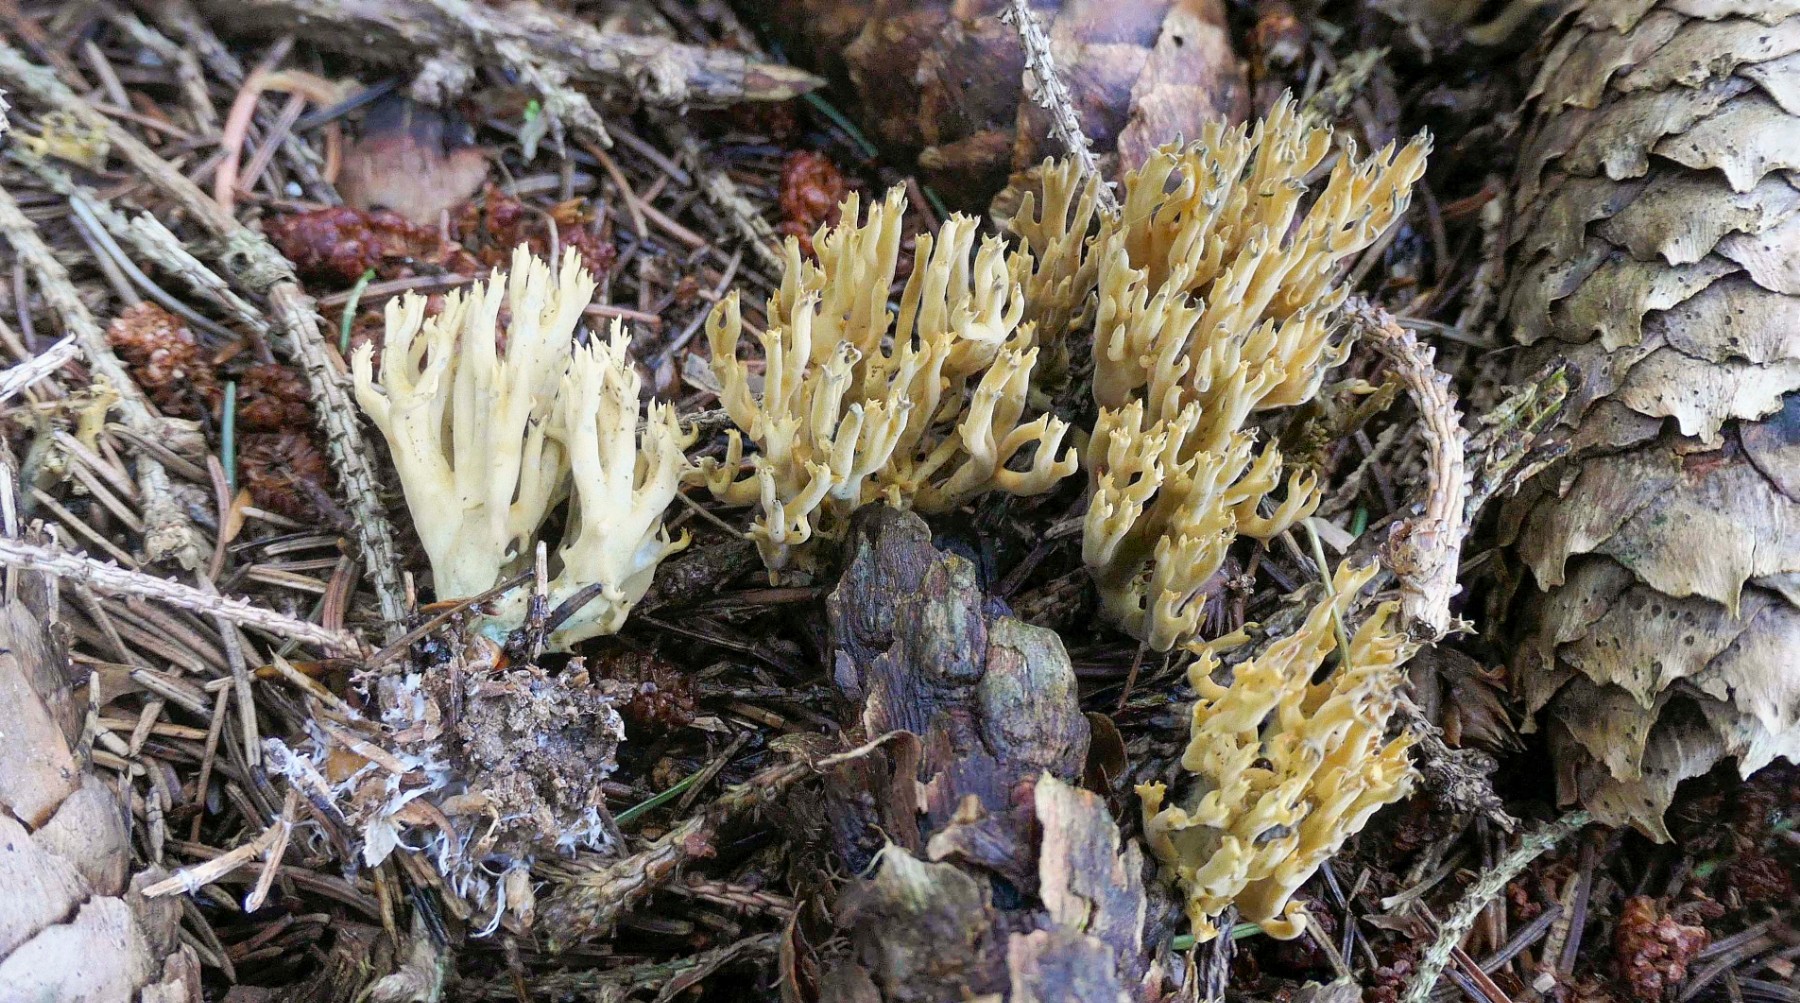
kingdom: Fungi
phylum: Basidiomycota
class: Agaricomycetes
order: Gomphales
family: Gomphaceae
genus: Phaeoclavulina
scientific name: Phaeoclavulina abietina
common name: gulgrøn koralsvamp
